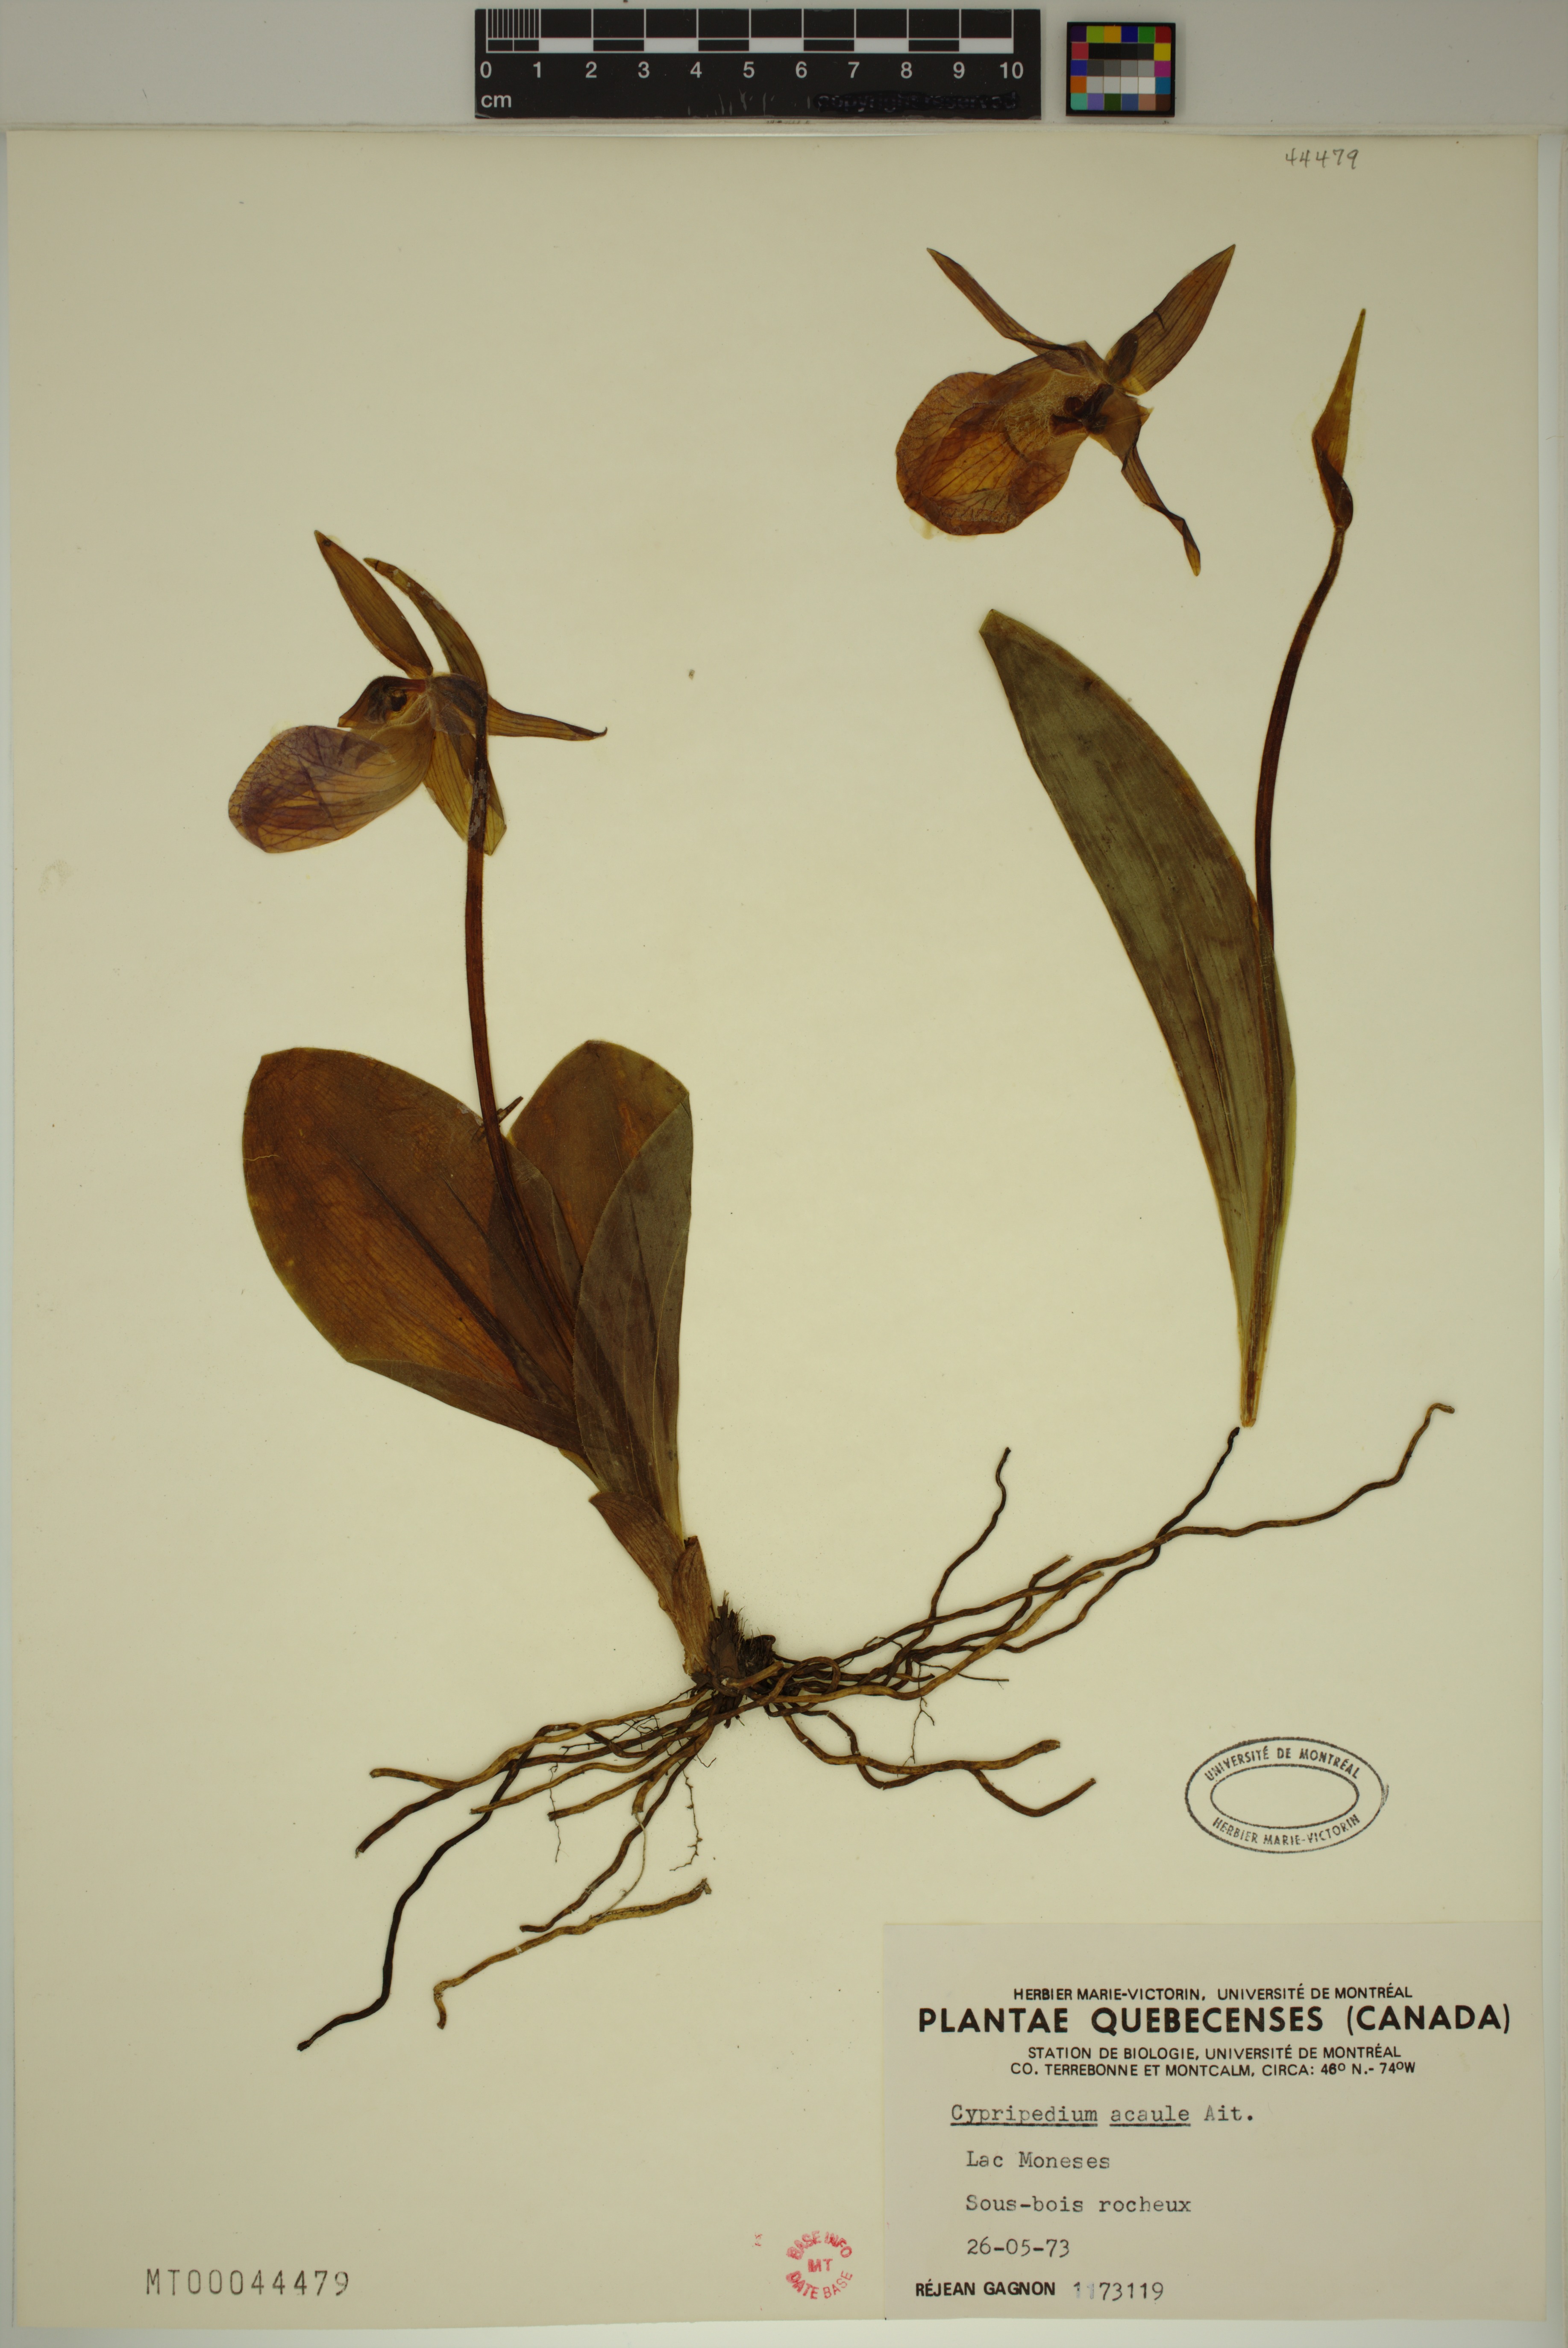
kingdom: Plantae
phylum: Tracheophyta
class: Liliopsida
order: Asparagales
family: Orchidaceae
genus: Cypripedium
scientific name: Cypripedium acaule
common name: Pink lady's-slipper
